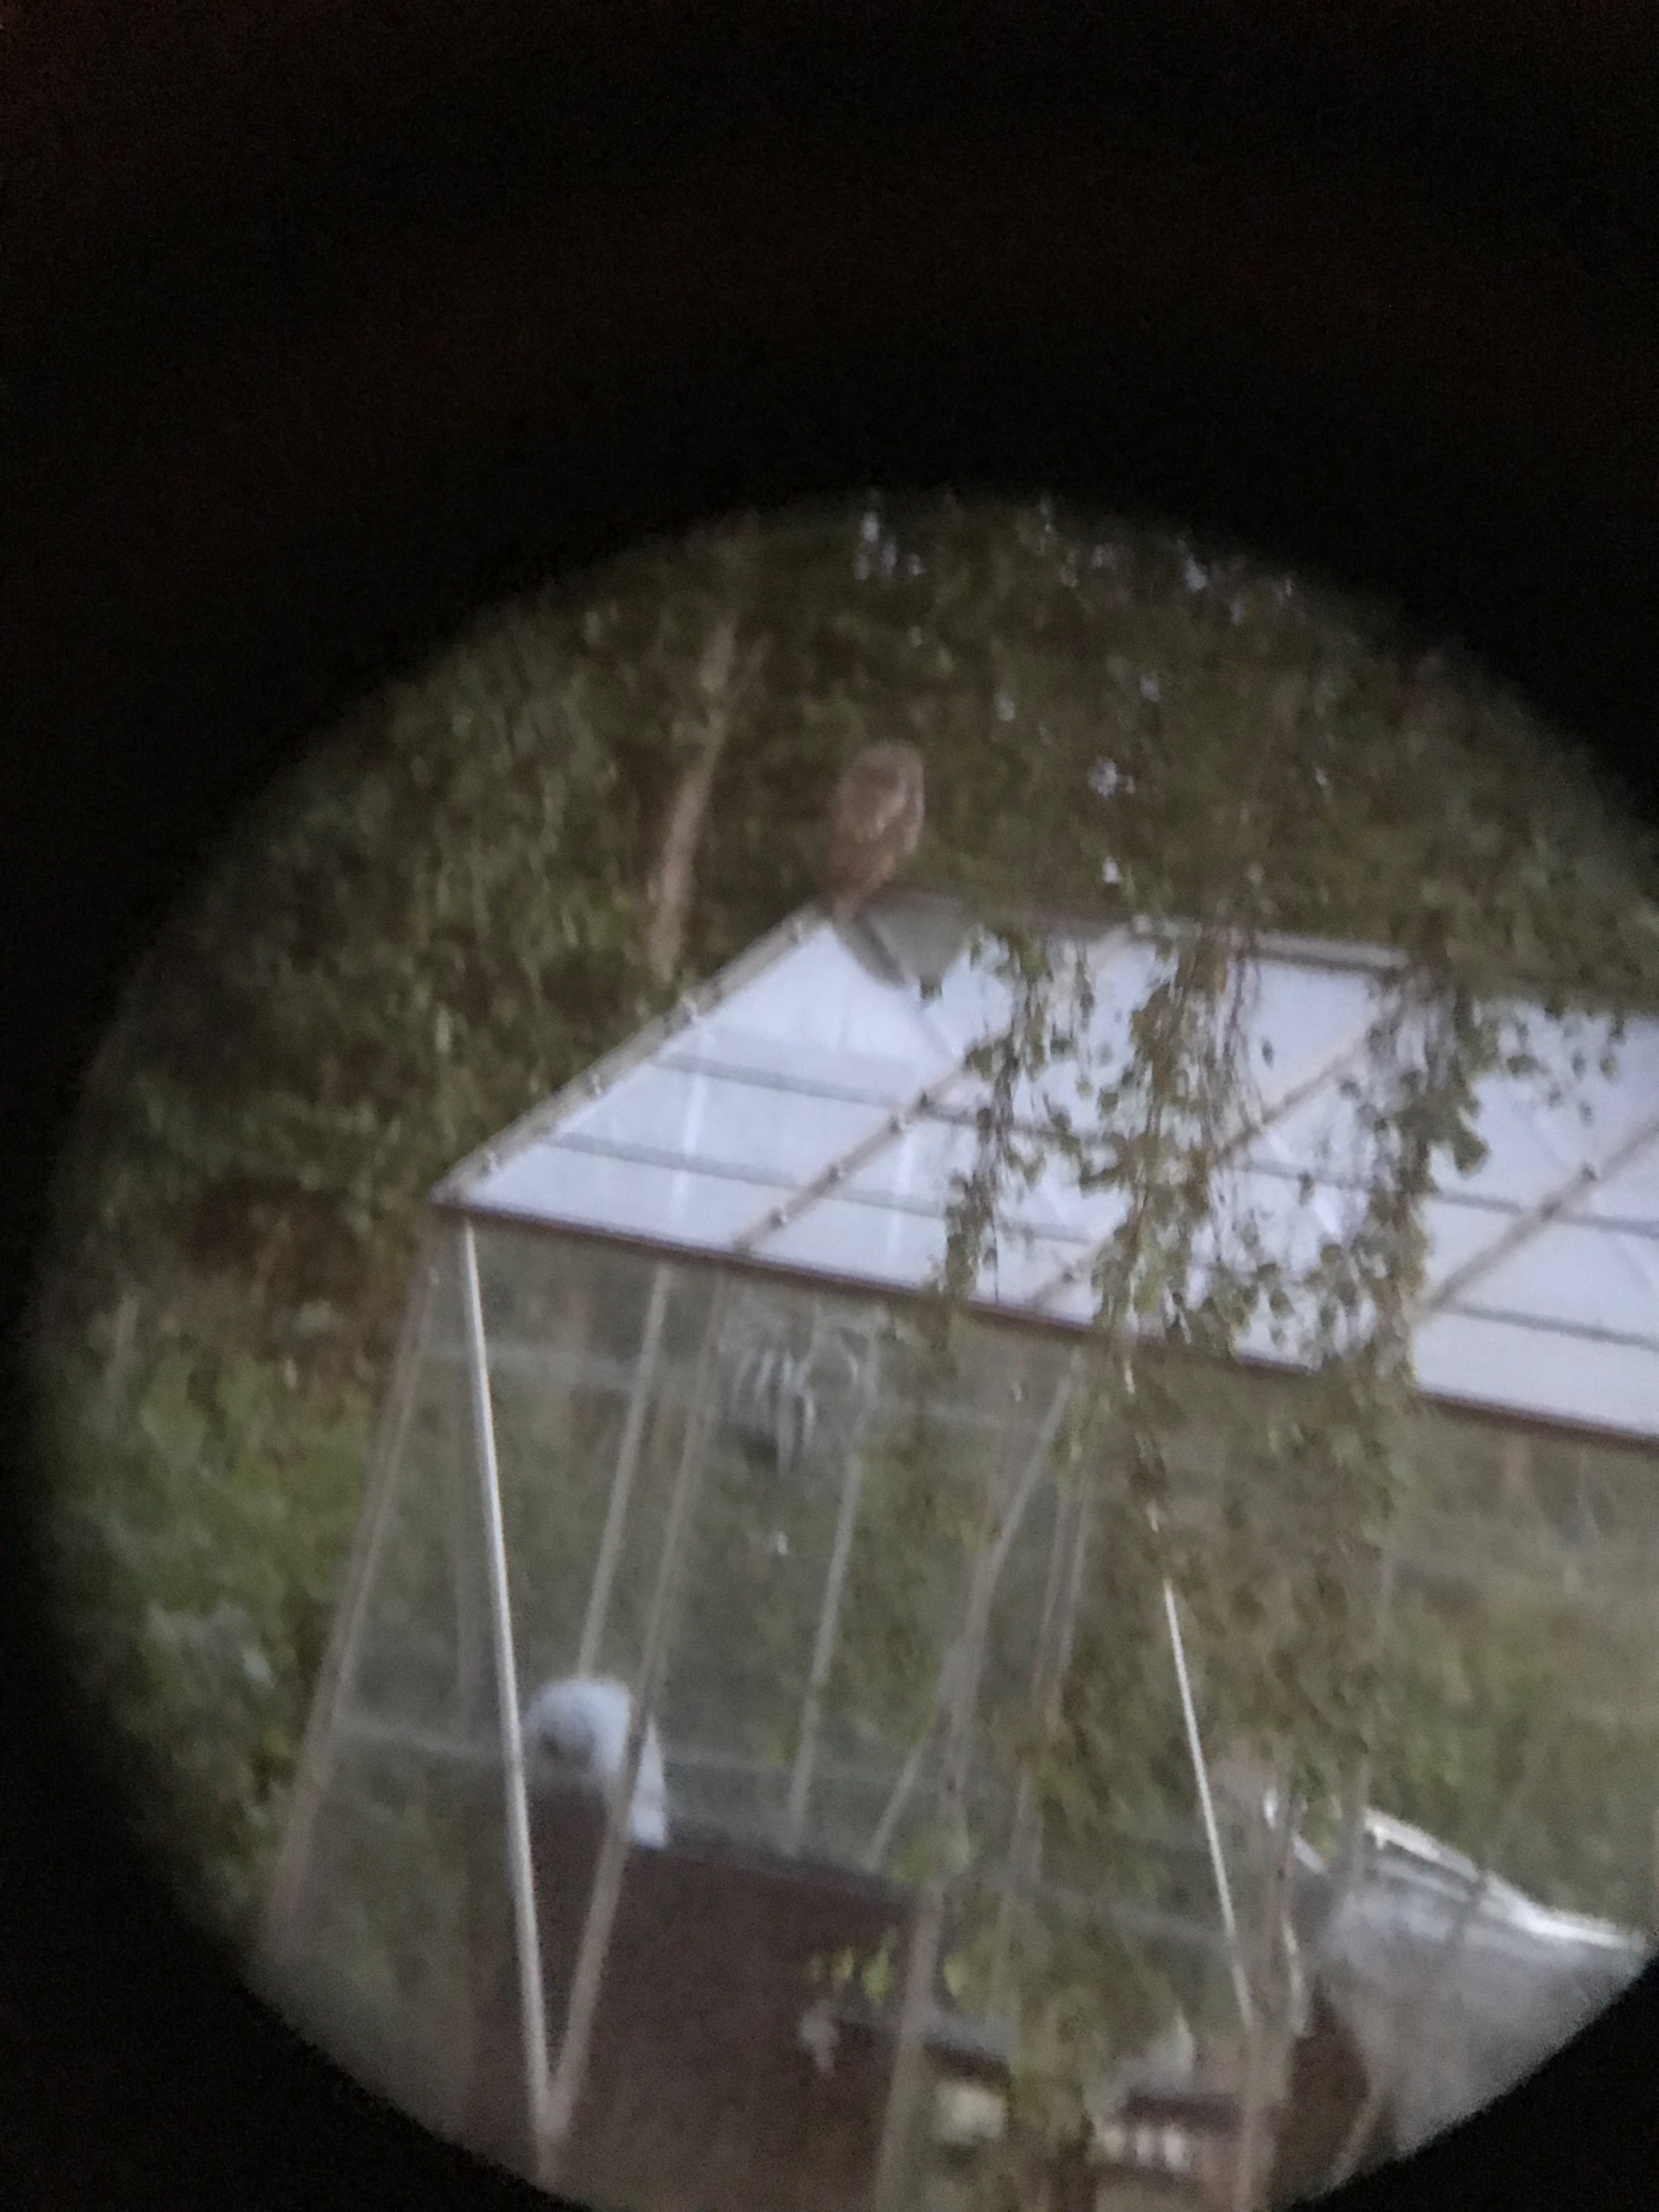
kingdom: Animalia
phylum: Chordata
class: Aves
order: Strigiformes
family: Strigidae
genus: Strix
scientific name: Strix aluco
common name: Natugle
